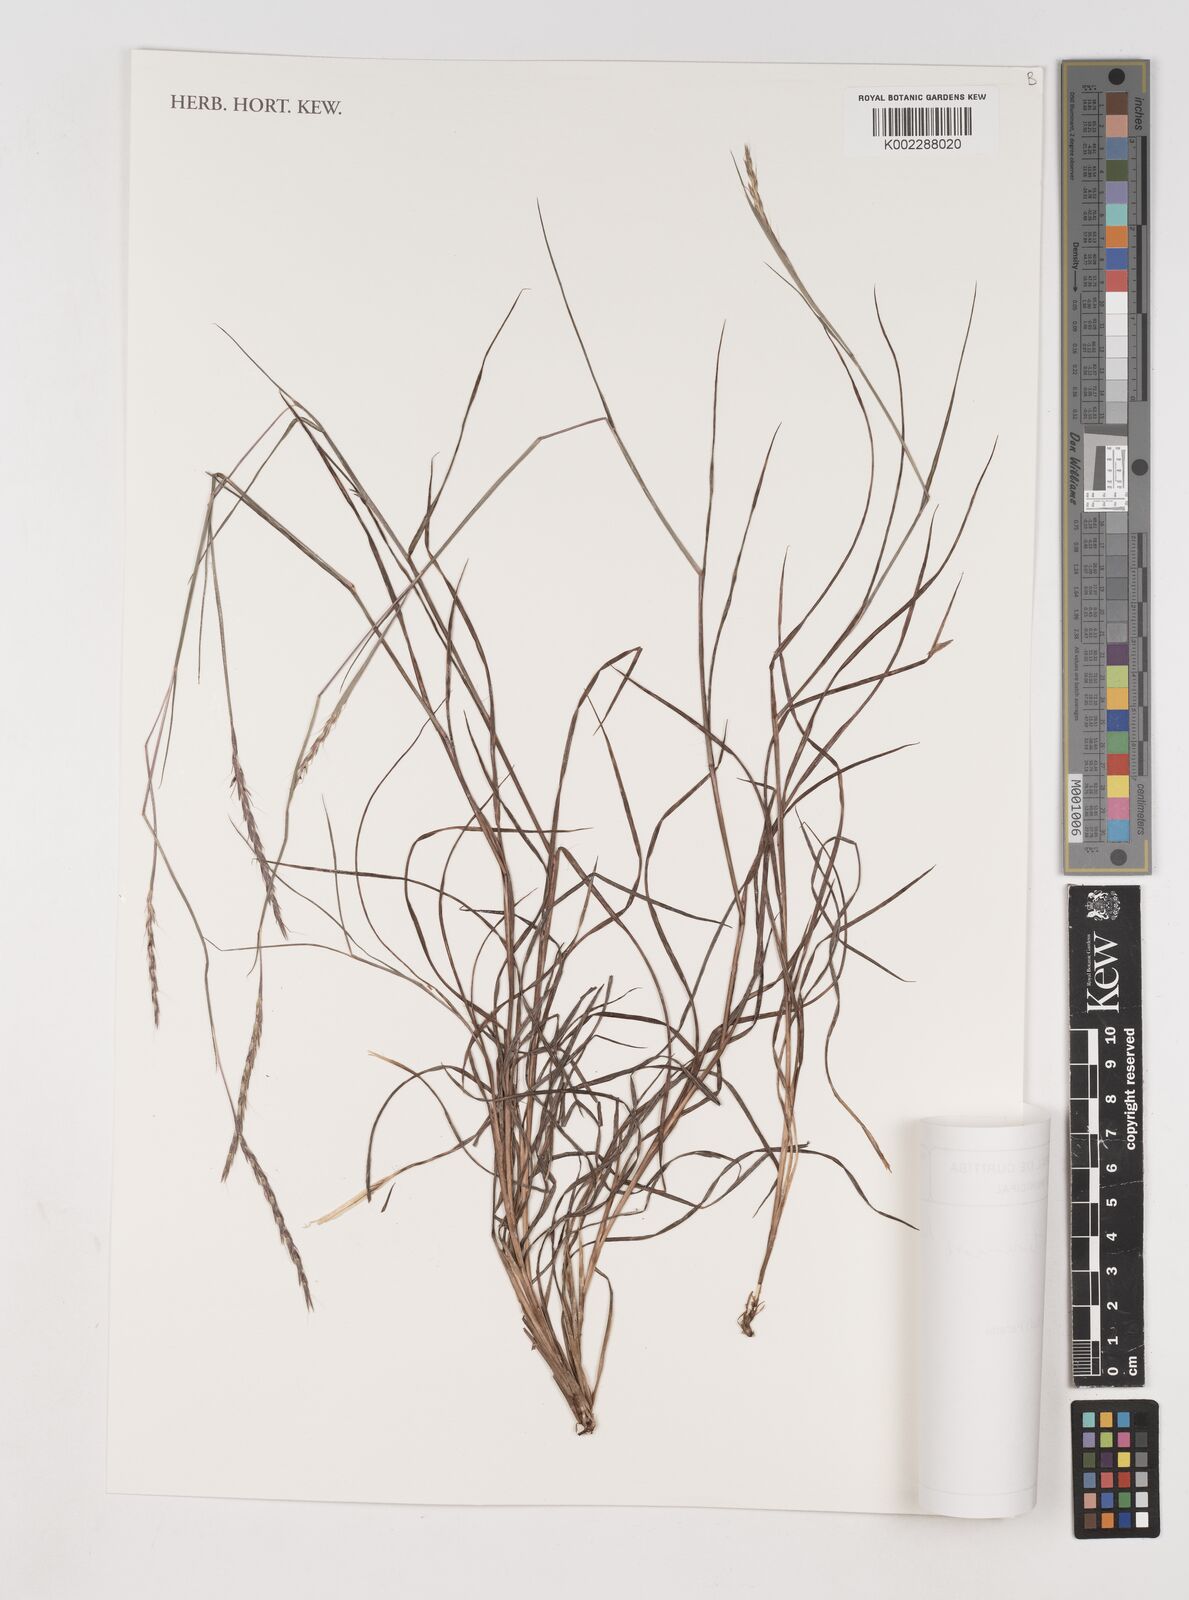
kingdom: Plantae
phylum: Tracheophyta
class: Liliopsida
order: Poales
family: Poaceae
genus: Andropogon
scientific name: Andropogon tener
